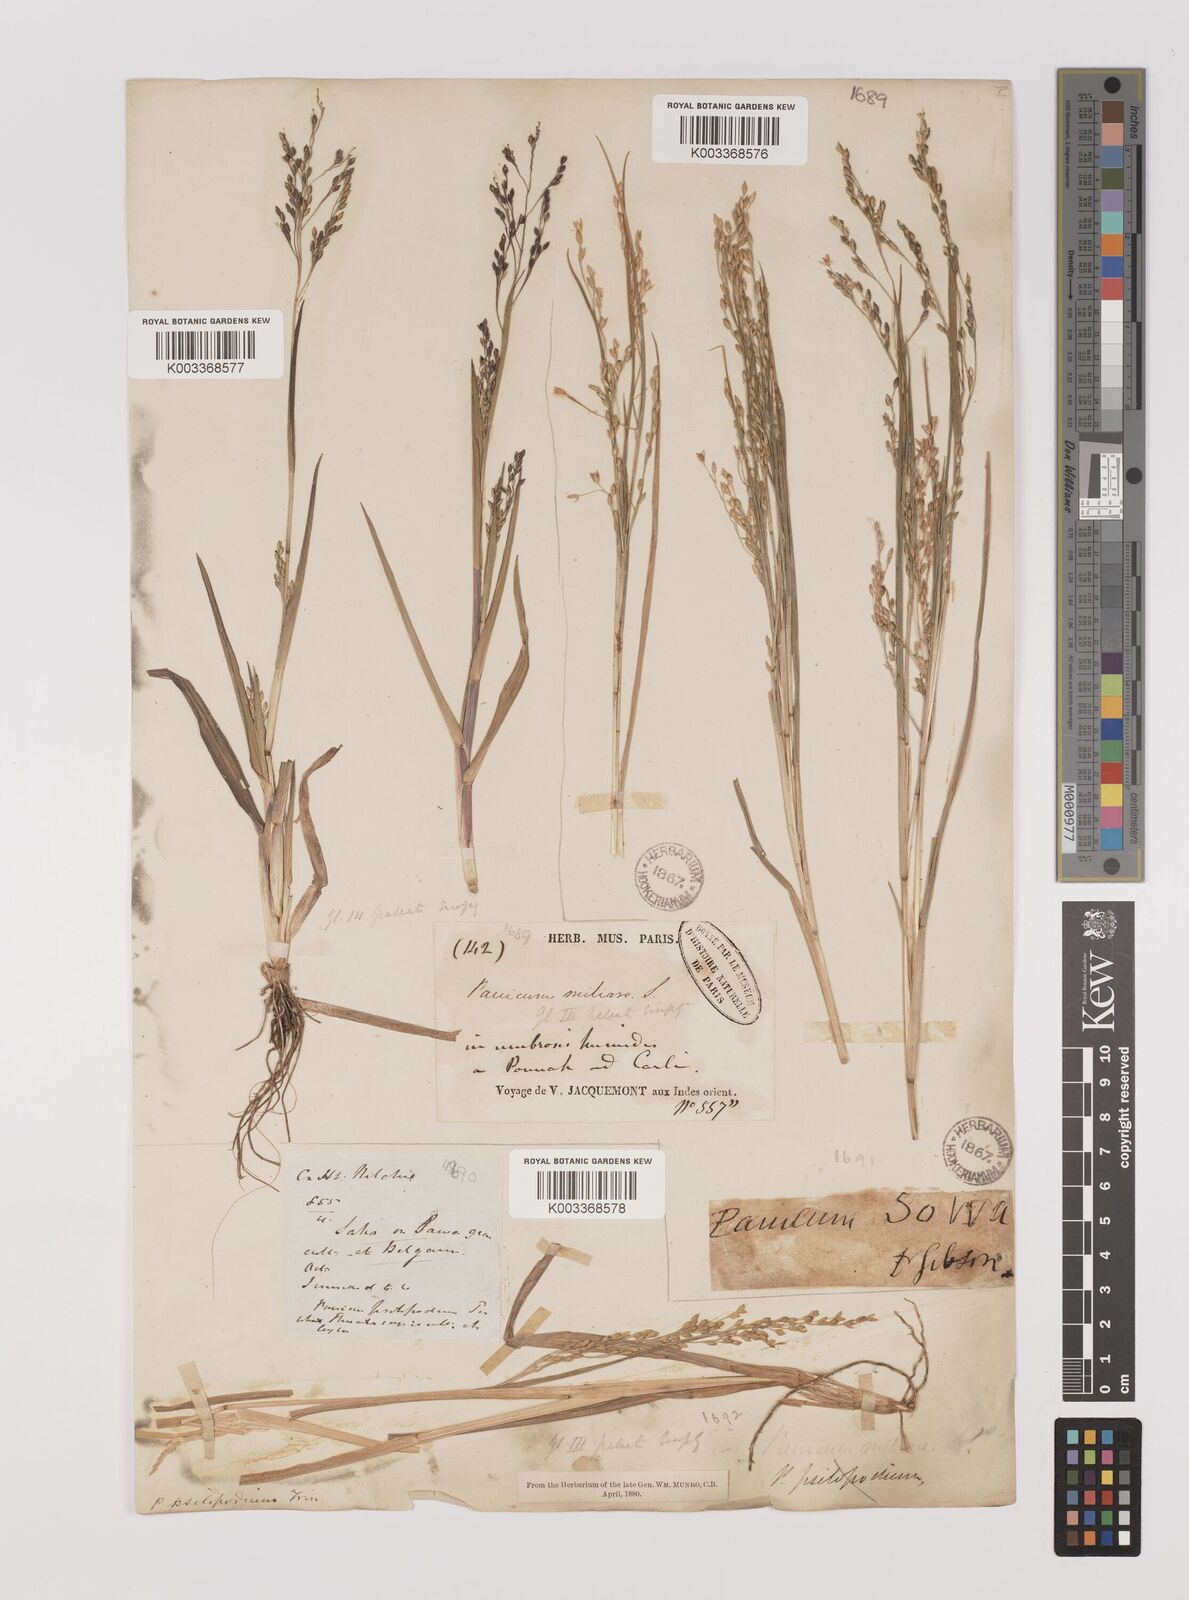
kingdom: Plantae
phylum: Tracheophyta
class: Liliopsida
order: Poales
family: Poaceae
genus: Panicum
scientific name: Panicum sumatrense
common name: Little millet
